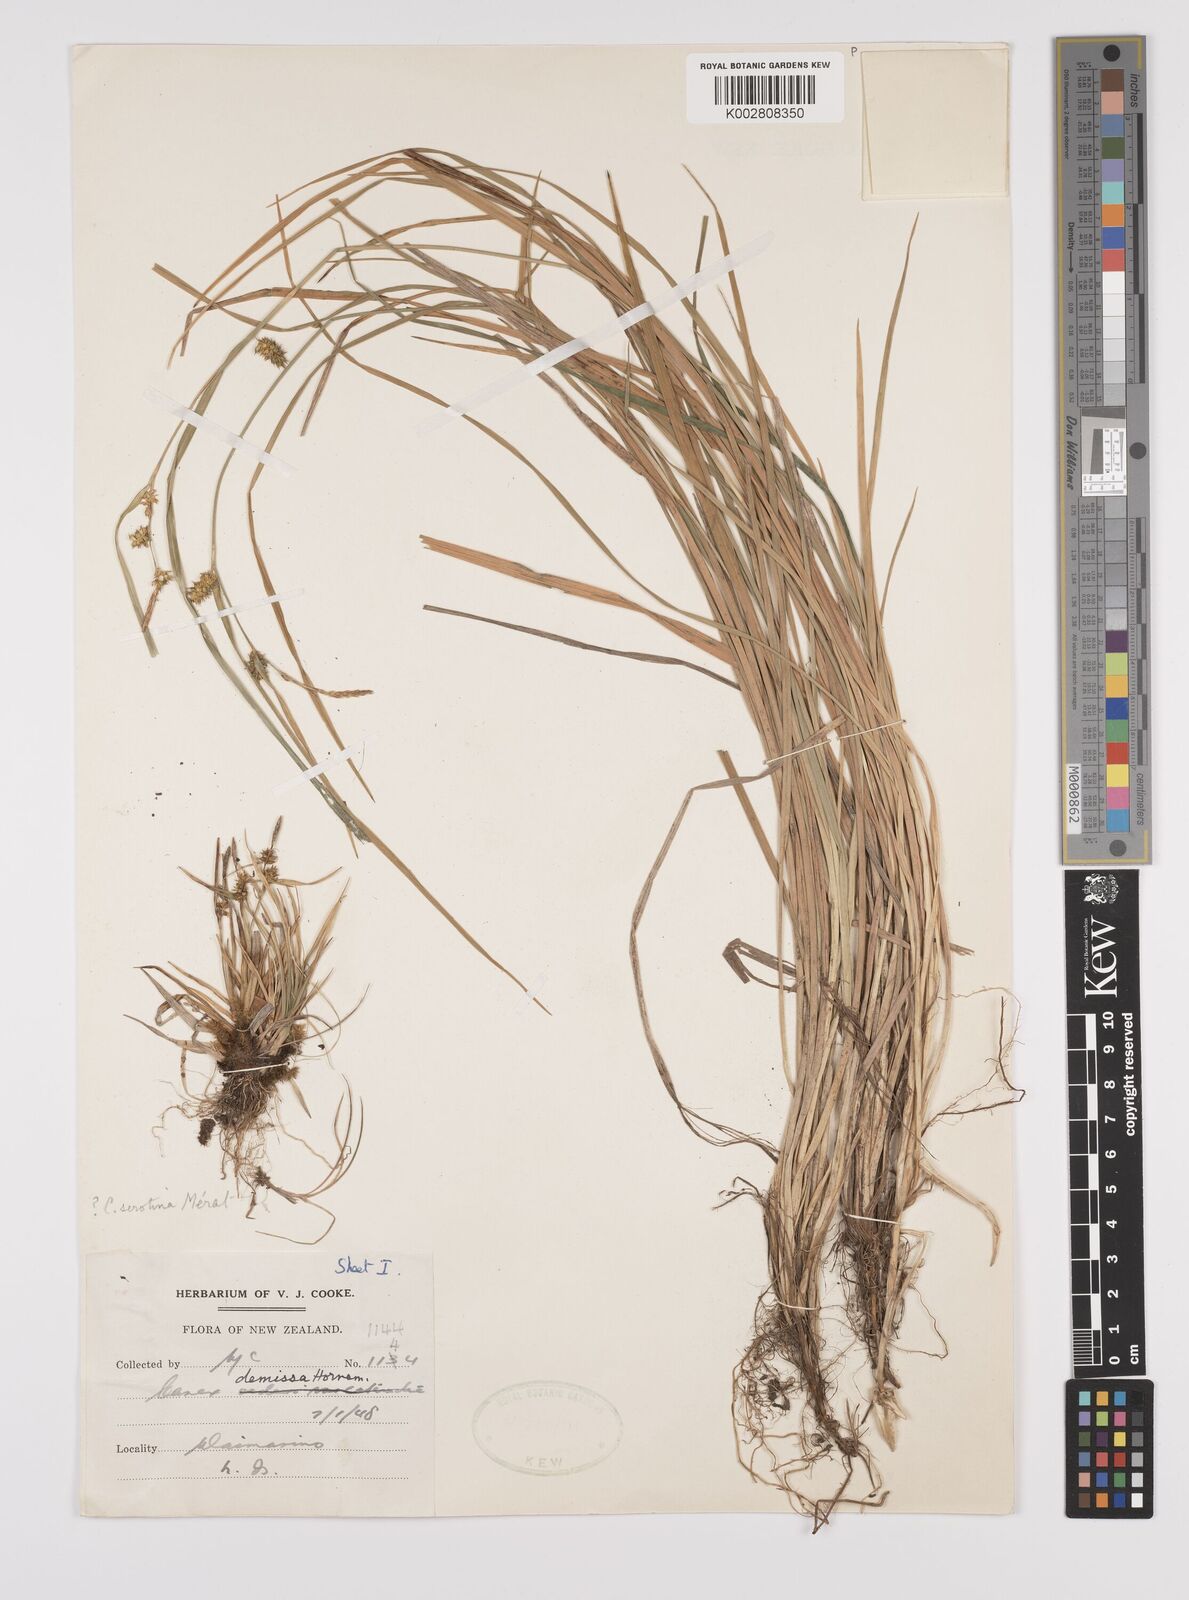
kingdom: Plantae
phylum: Tracheophyta
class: Liliopsida
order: Poales
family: Cyperaceae
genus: Carex
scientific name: Carex inversa
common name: Knob sedge
